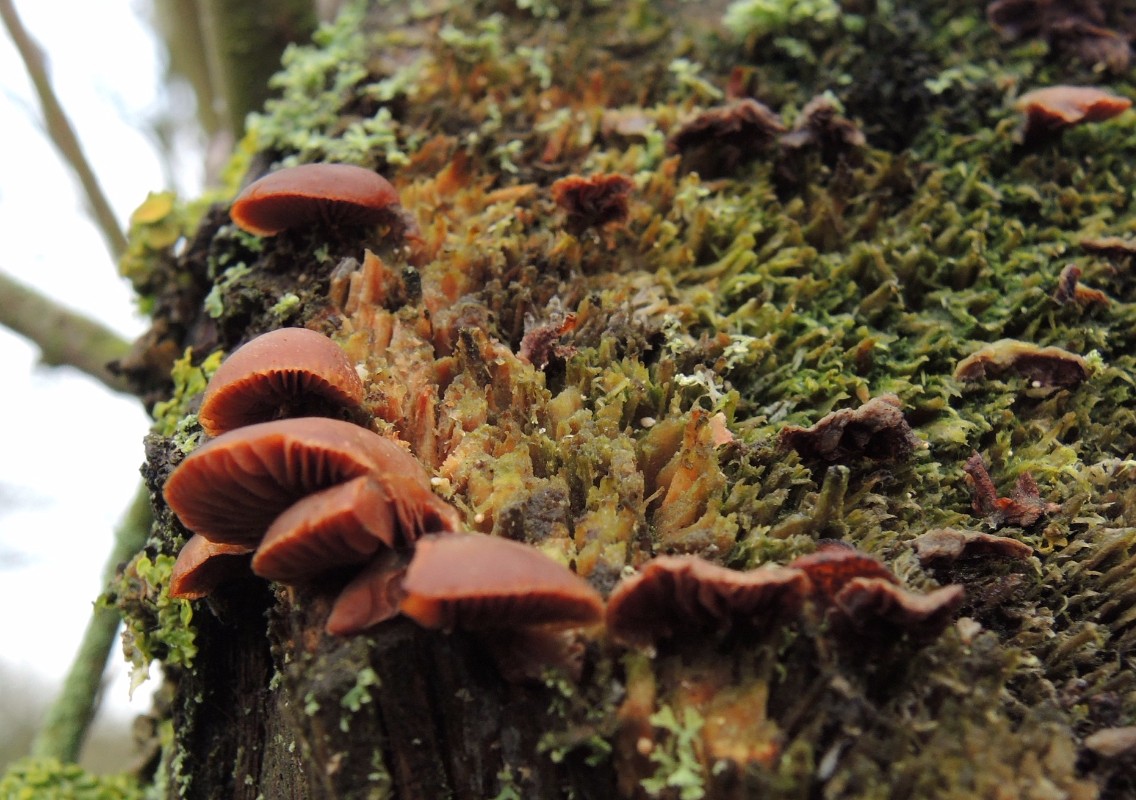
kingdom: Fungi
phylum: Basidiomycota
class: Agaricomycetes
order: Agaricales
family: Strophariaceae
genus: Deconica
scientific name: Deconica horizontalis
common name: ved-stråhat
